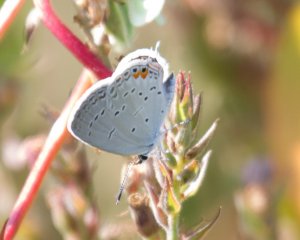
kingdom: Animalia
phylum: Arthropoda
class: Insecta
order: Lepidoptera
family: Lycaenidae
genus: Elkalyce
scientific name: Elkalyce comyntas
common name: Eastern Tailed-Blue
